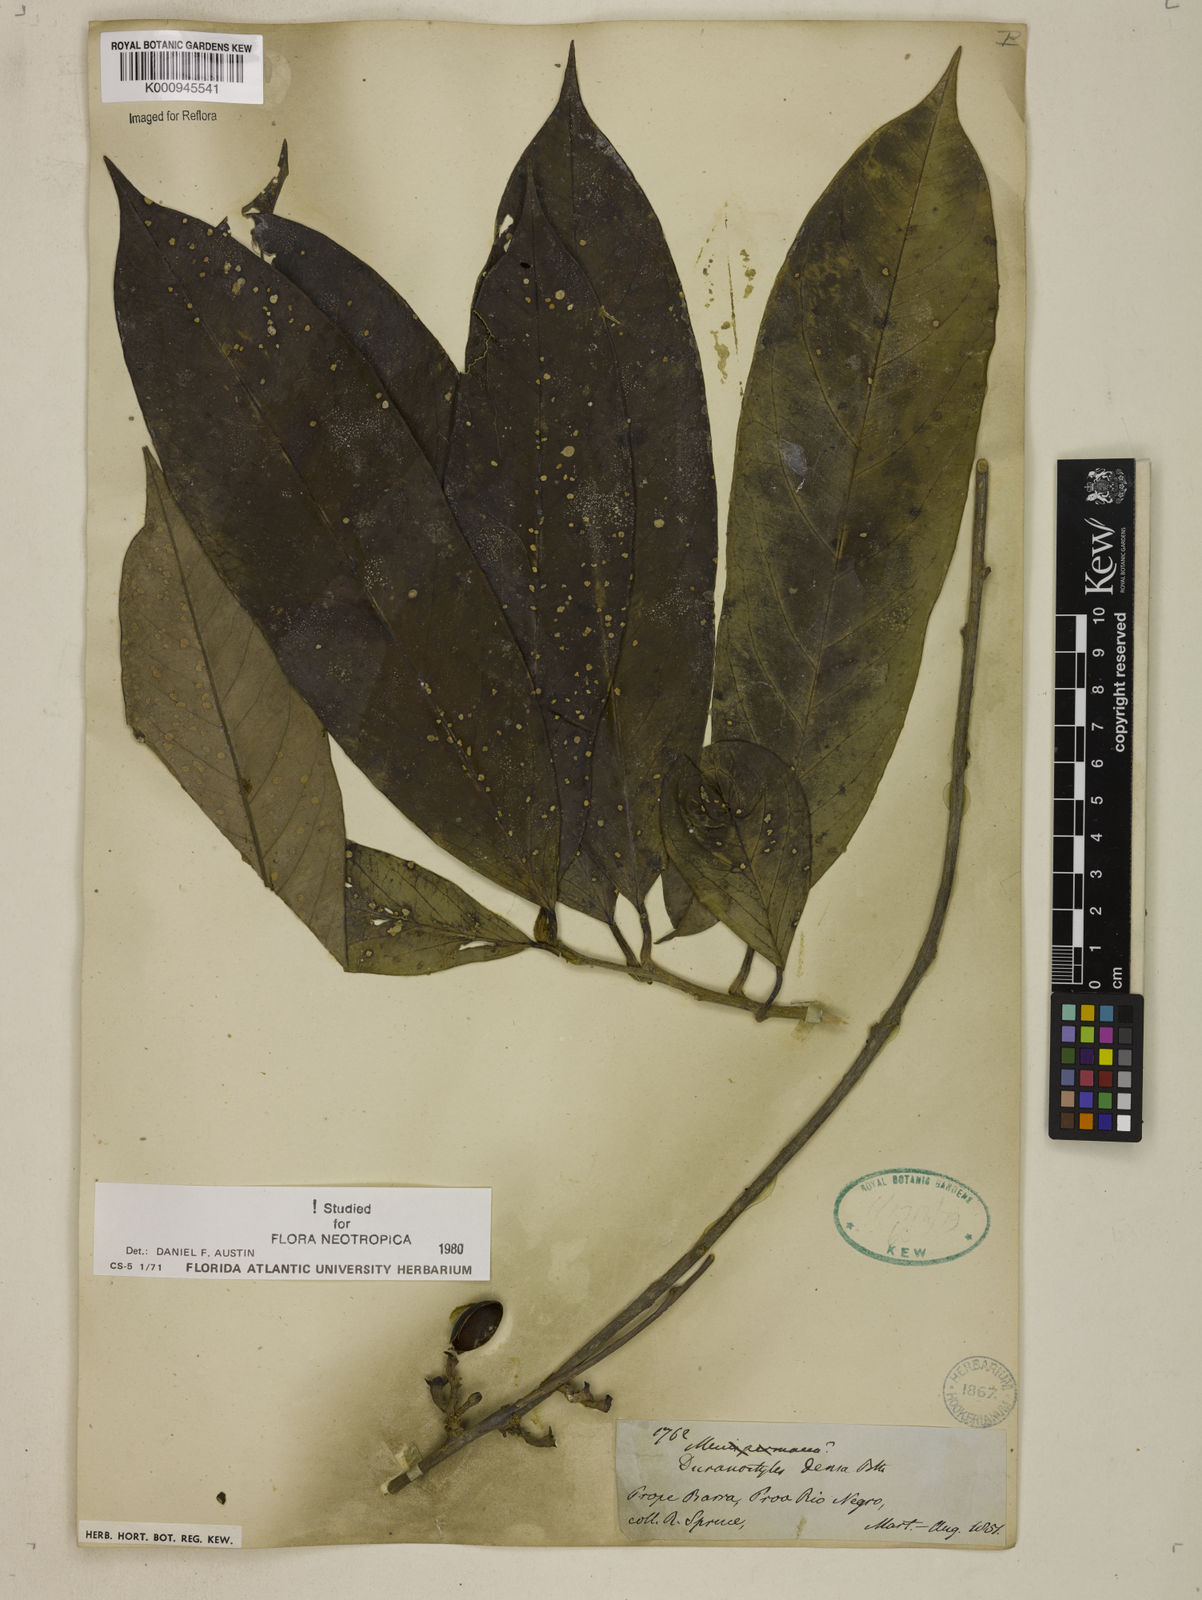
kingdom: Plantae
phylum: Tracheophyta
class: Magnoliopsida
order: Solanales
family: Convolvulaceae
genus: Dicranostyles
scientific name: Dicranostyles densa
